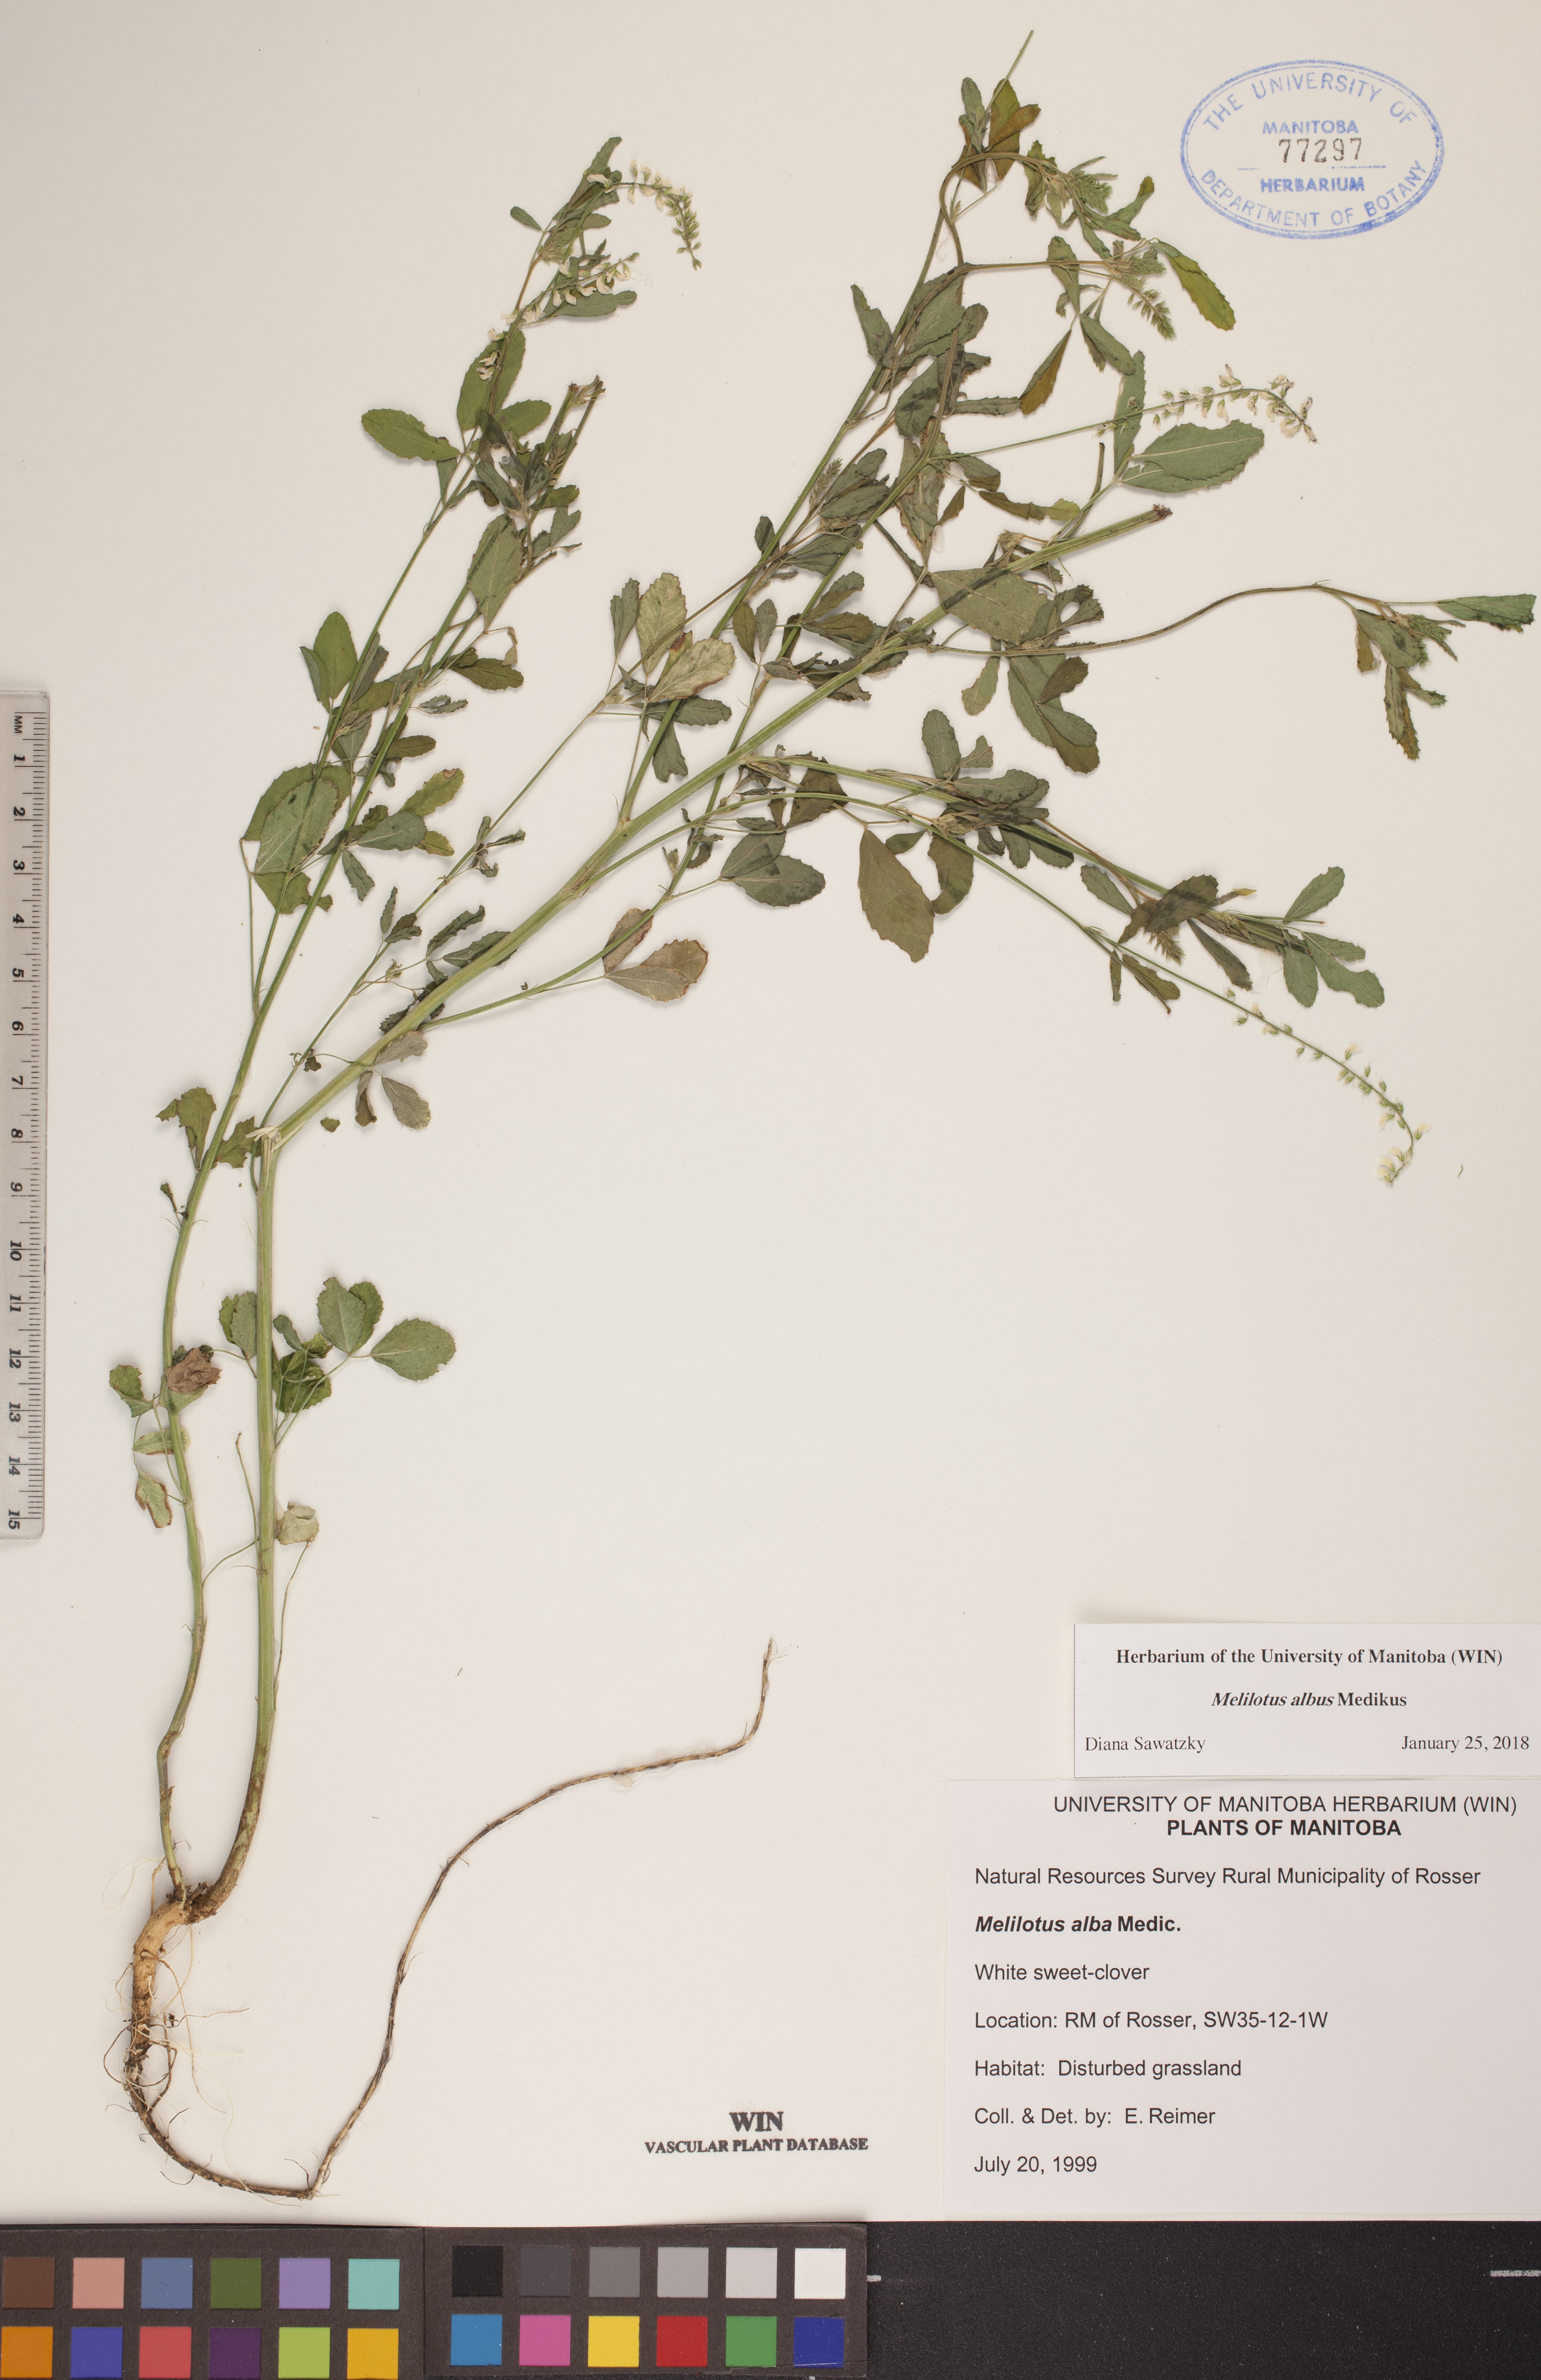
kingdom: Plantae
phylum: Tracheophyta
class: Magnoliopsida
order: Fabales
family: Fabaceae
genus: Melilotus
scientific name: Melilotus albus
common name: White melilot
